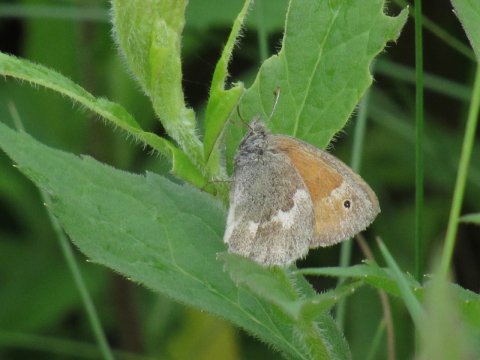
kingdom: Animalia
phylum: Arthropoda
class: Insecta
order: Lepidoptera
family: Nymphalidae
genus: Coenonympha
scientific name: Coenonympha tullia
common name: Large Heath
